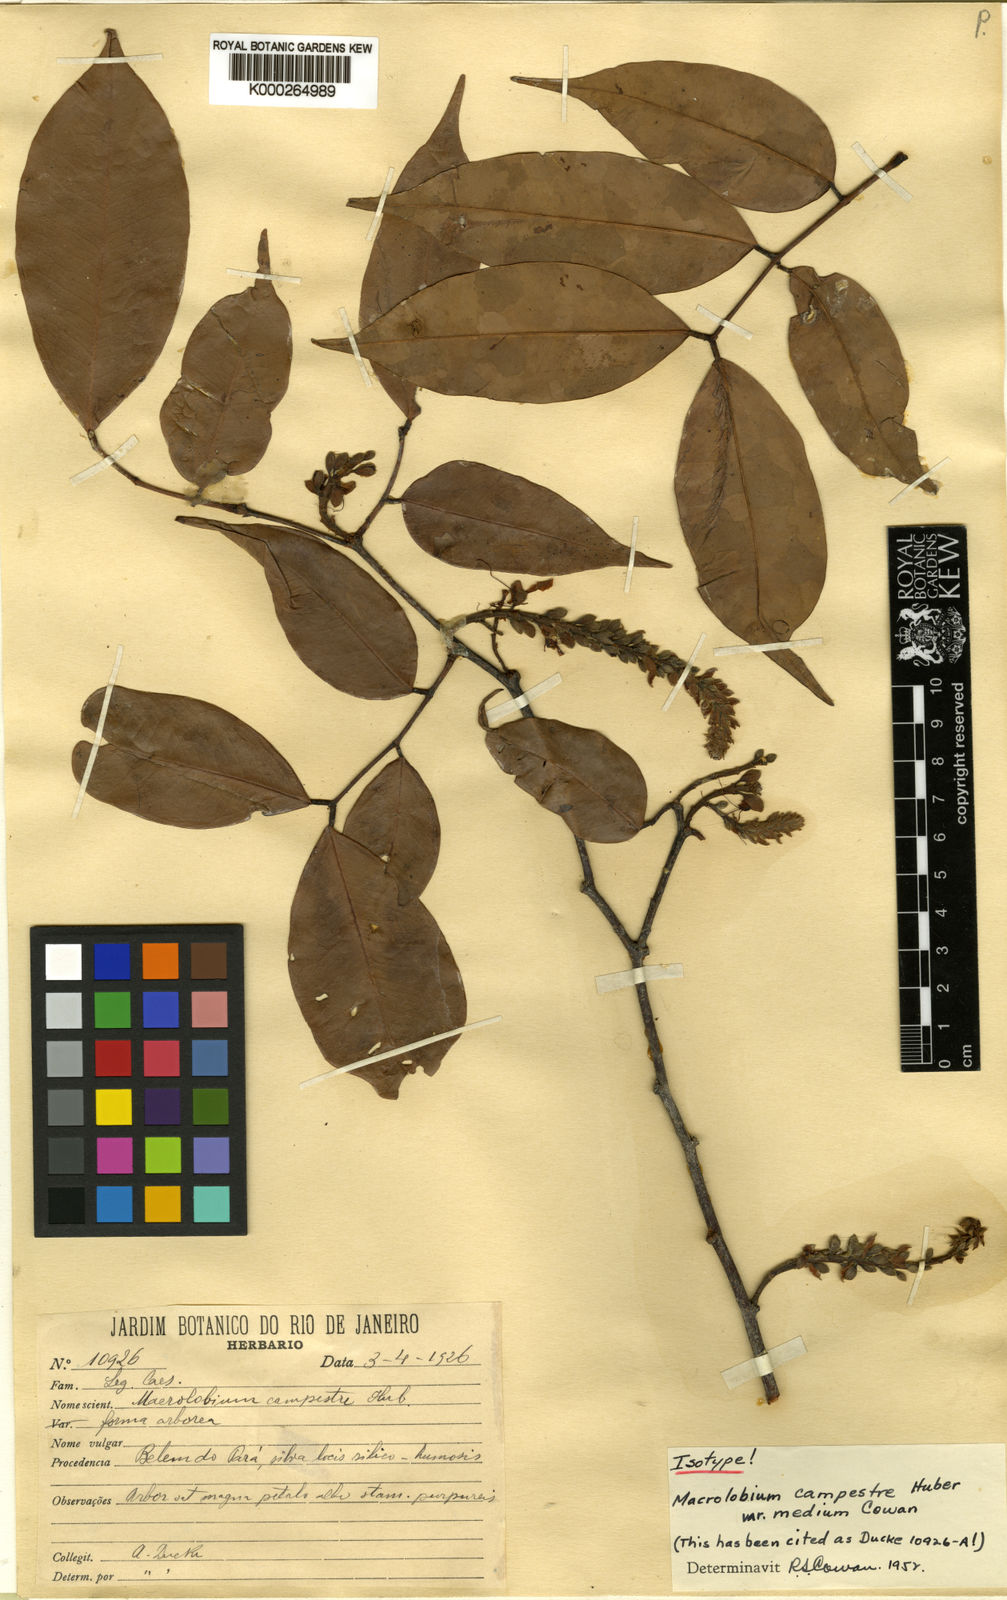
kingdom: Plantae
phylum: Tracheophyta
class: Magnoliopsida
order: Fabales
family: Fabaceae
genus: Macrolobium
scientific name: Macrolobium campestre
